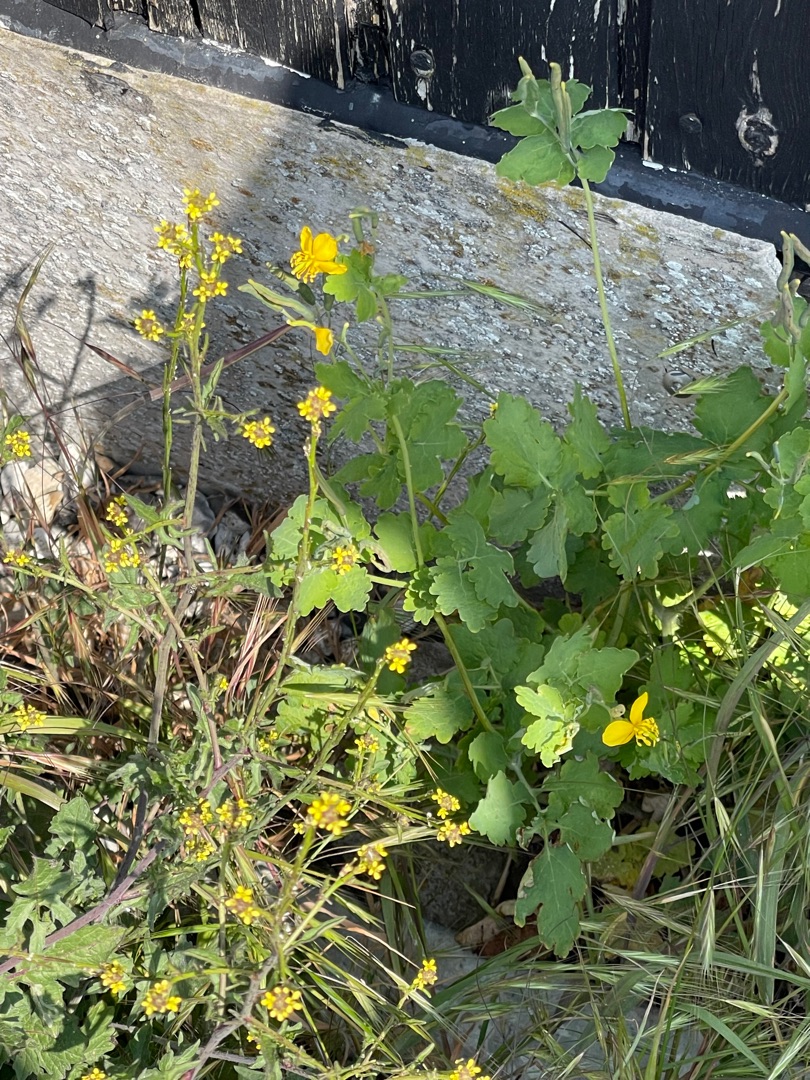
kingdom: Plantae
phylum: Tracheophyta
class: Magnoliopsida
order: Ranunculales
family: Papaveraceae
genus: Chelidonium
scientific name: Chelidonium majus
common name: Svaleurt
